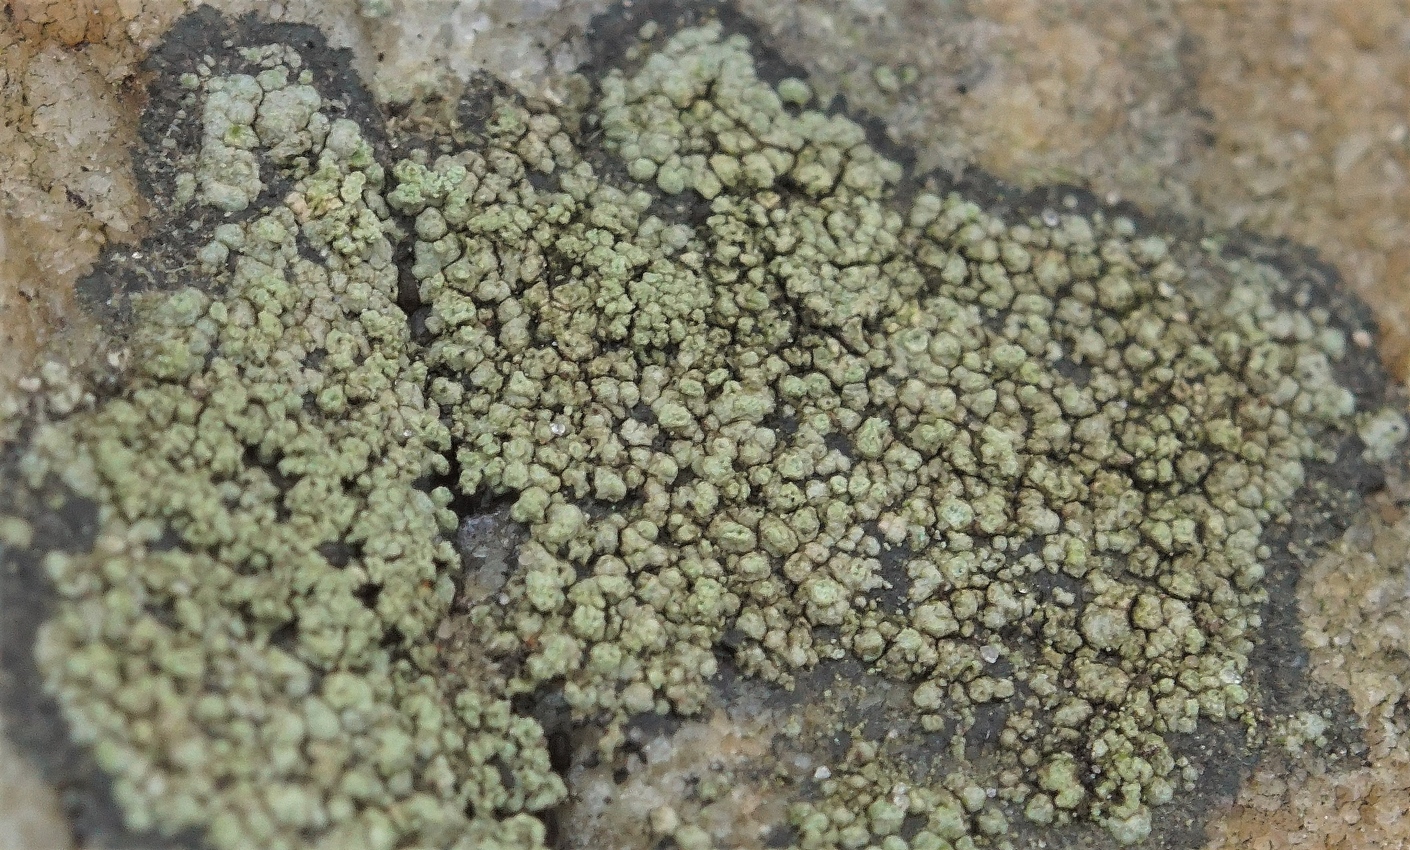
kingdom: Fungi
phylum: Ascomycota
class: Lecanoromycetes
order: Lecideales
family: Lecideaceae
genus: Porpidia
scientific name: Porpidia soredizodes
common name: sortkornet bredskivelav
